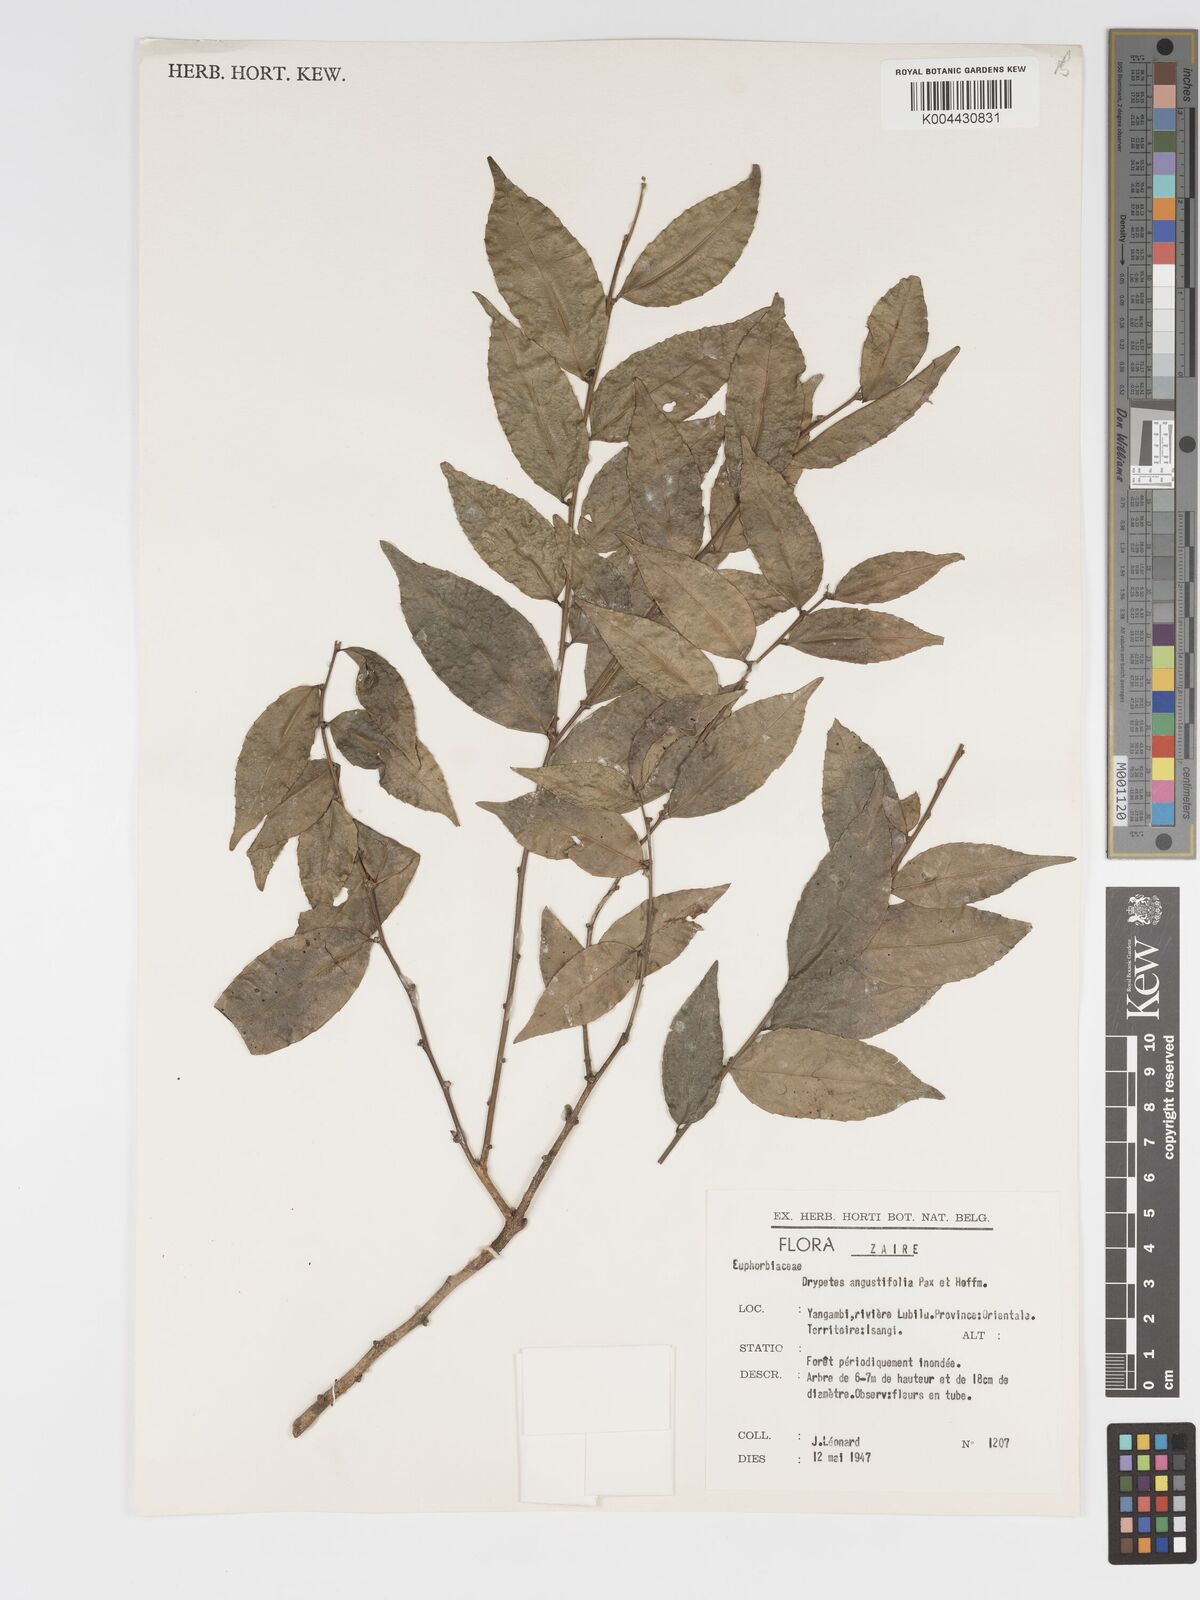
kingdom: Plantae
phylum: Tracheophyta
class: Magnoliopsida
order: Malpighiales
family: Putranjivaceae
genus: Drypetes
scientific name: Drypetes angustifolia
